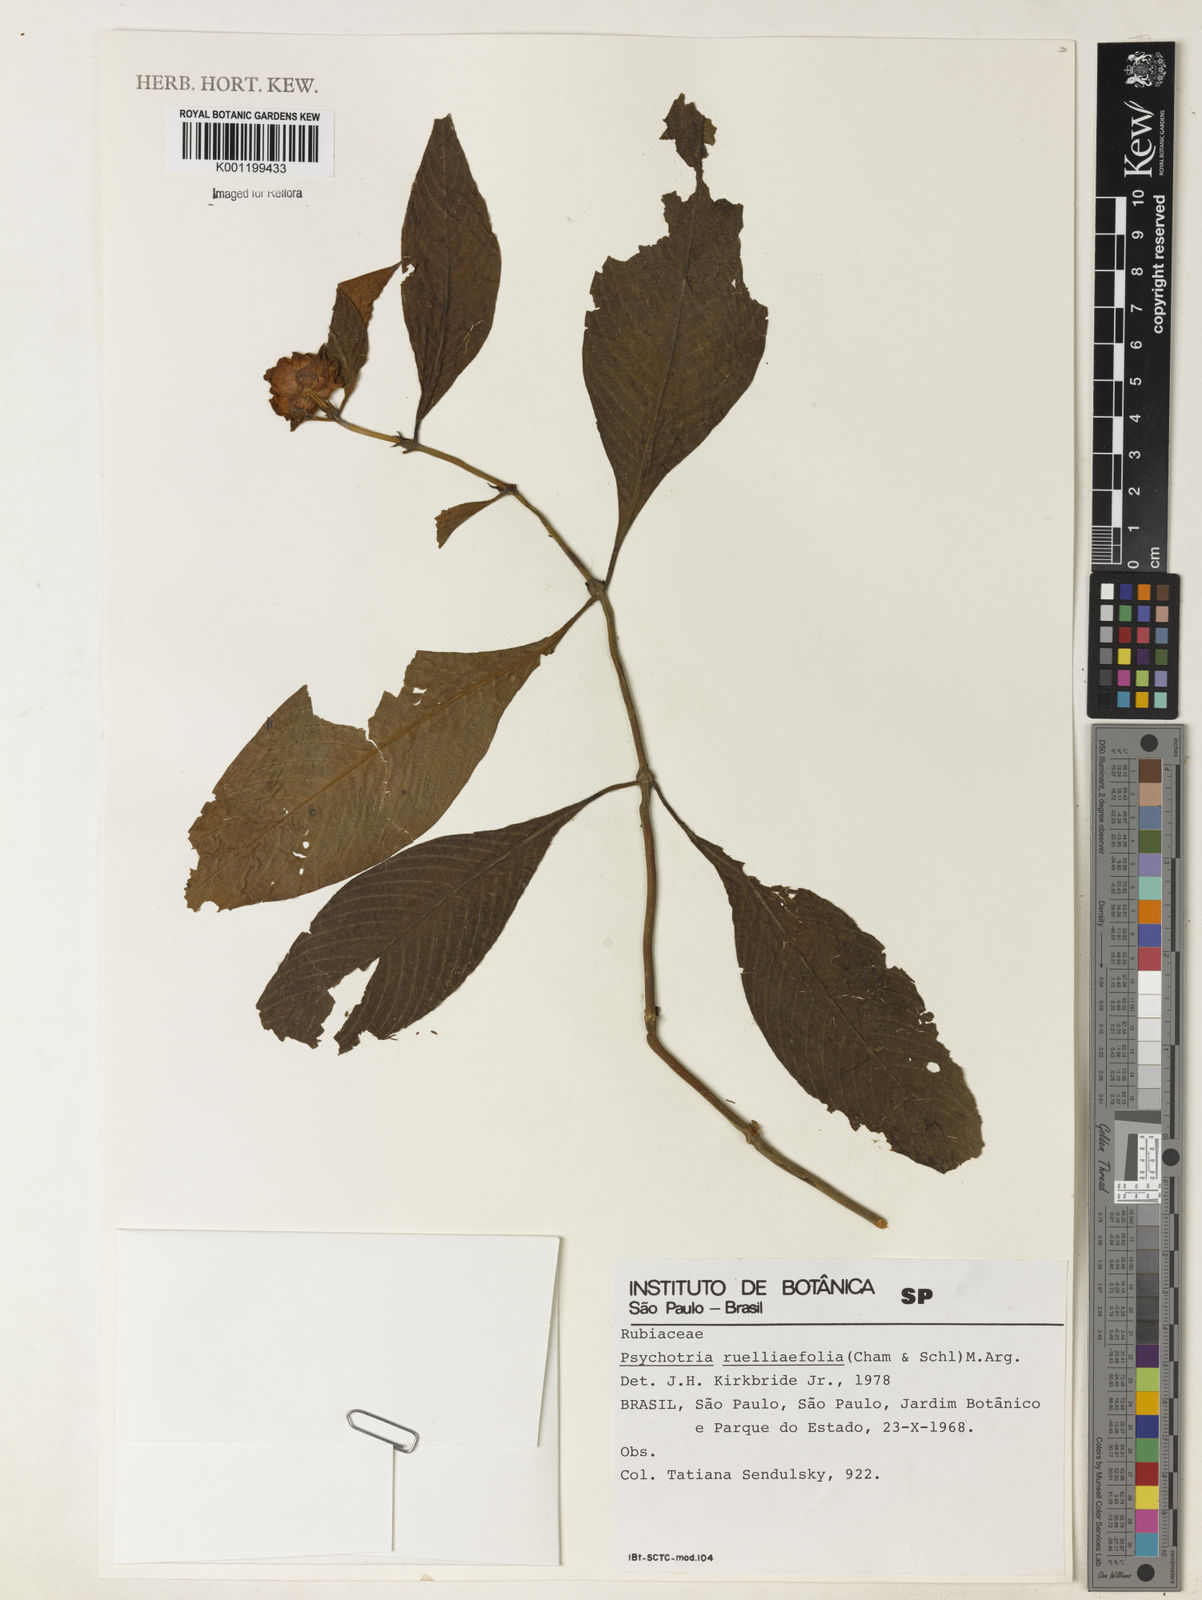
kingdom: Plantae
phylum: Tracheophyta
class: Magnoliopsida
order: Gentianales
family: Rubiaceae
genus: Psychotria
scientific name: Psychotria
